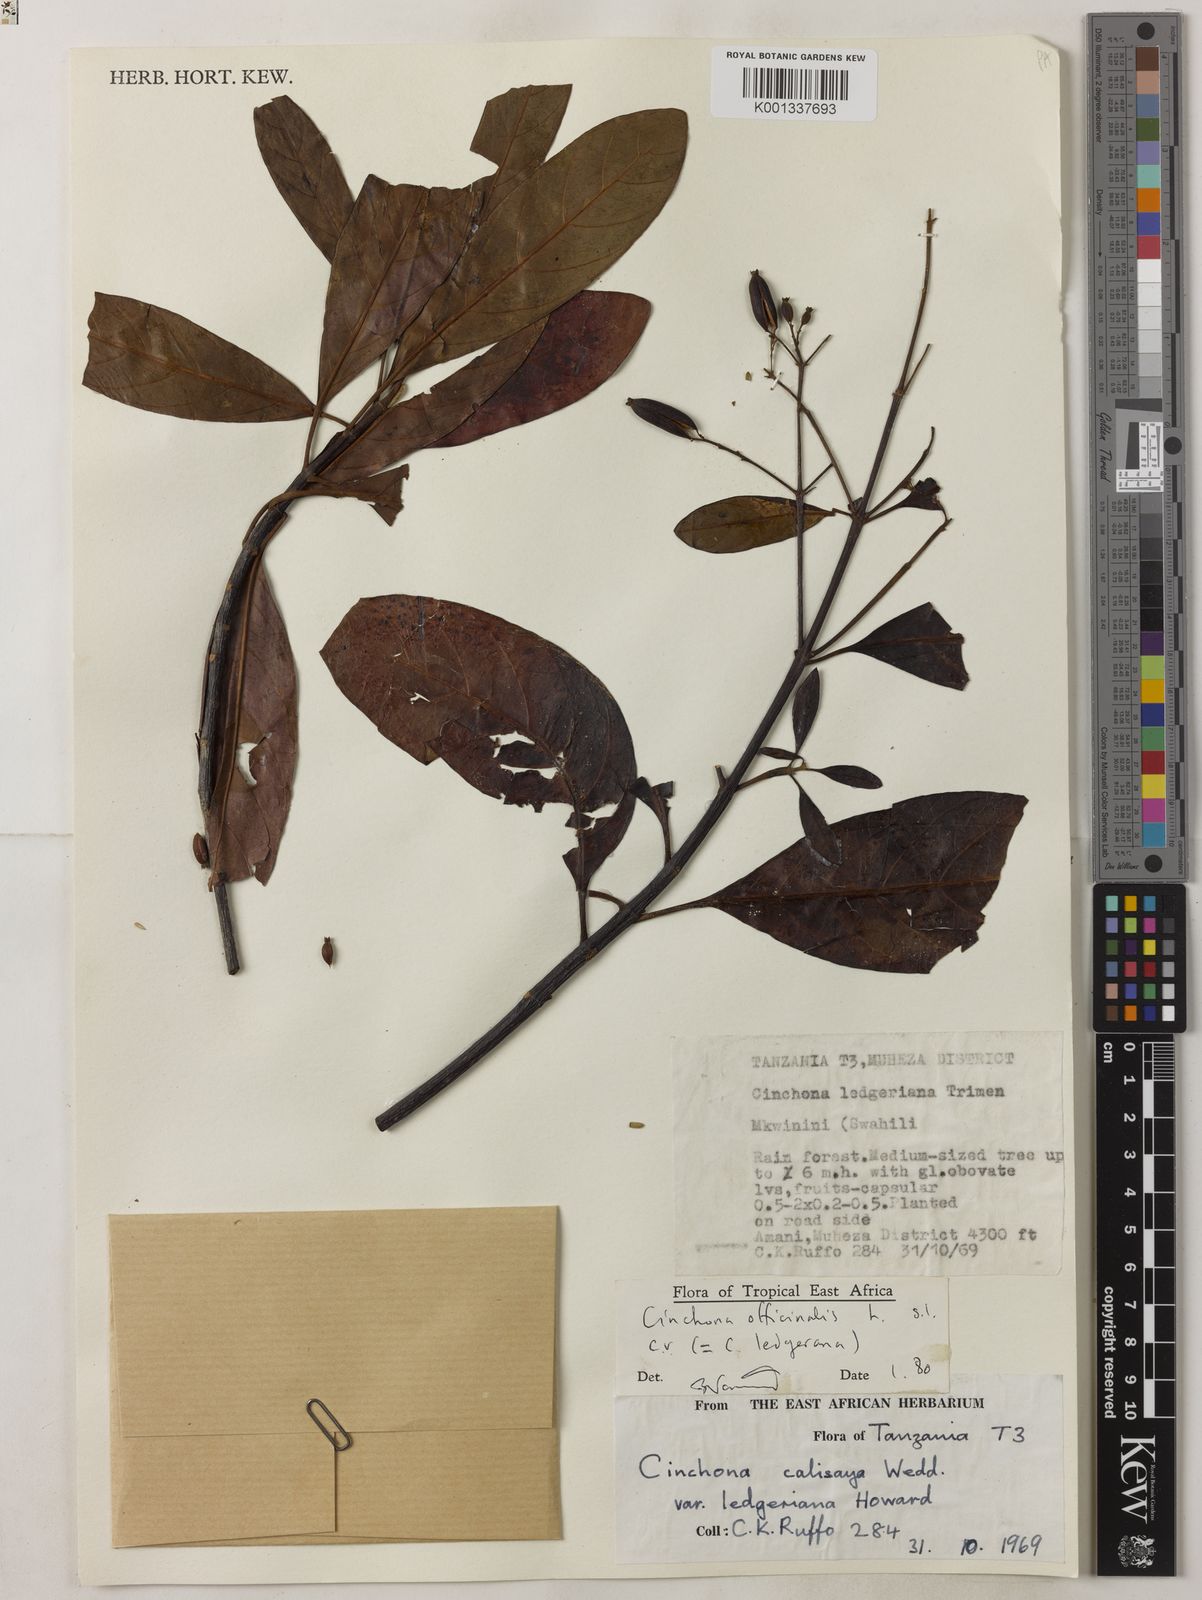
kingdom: Plantae
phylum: Tracheophyta
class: Magnoliopsida
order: Gentianales
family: Rubiaceae
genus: Cinchona
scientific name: Cinchona calisaya
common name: Ledgerbark
